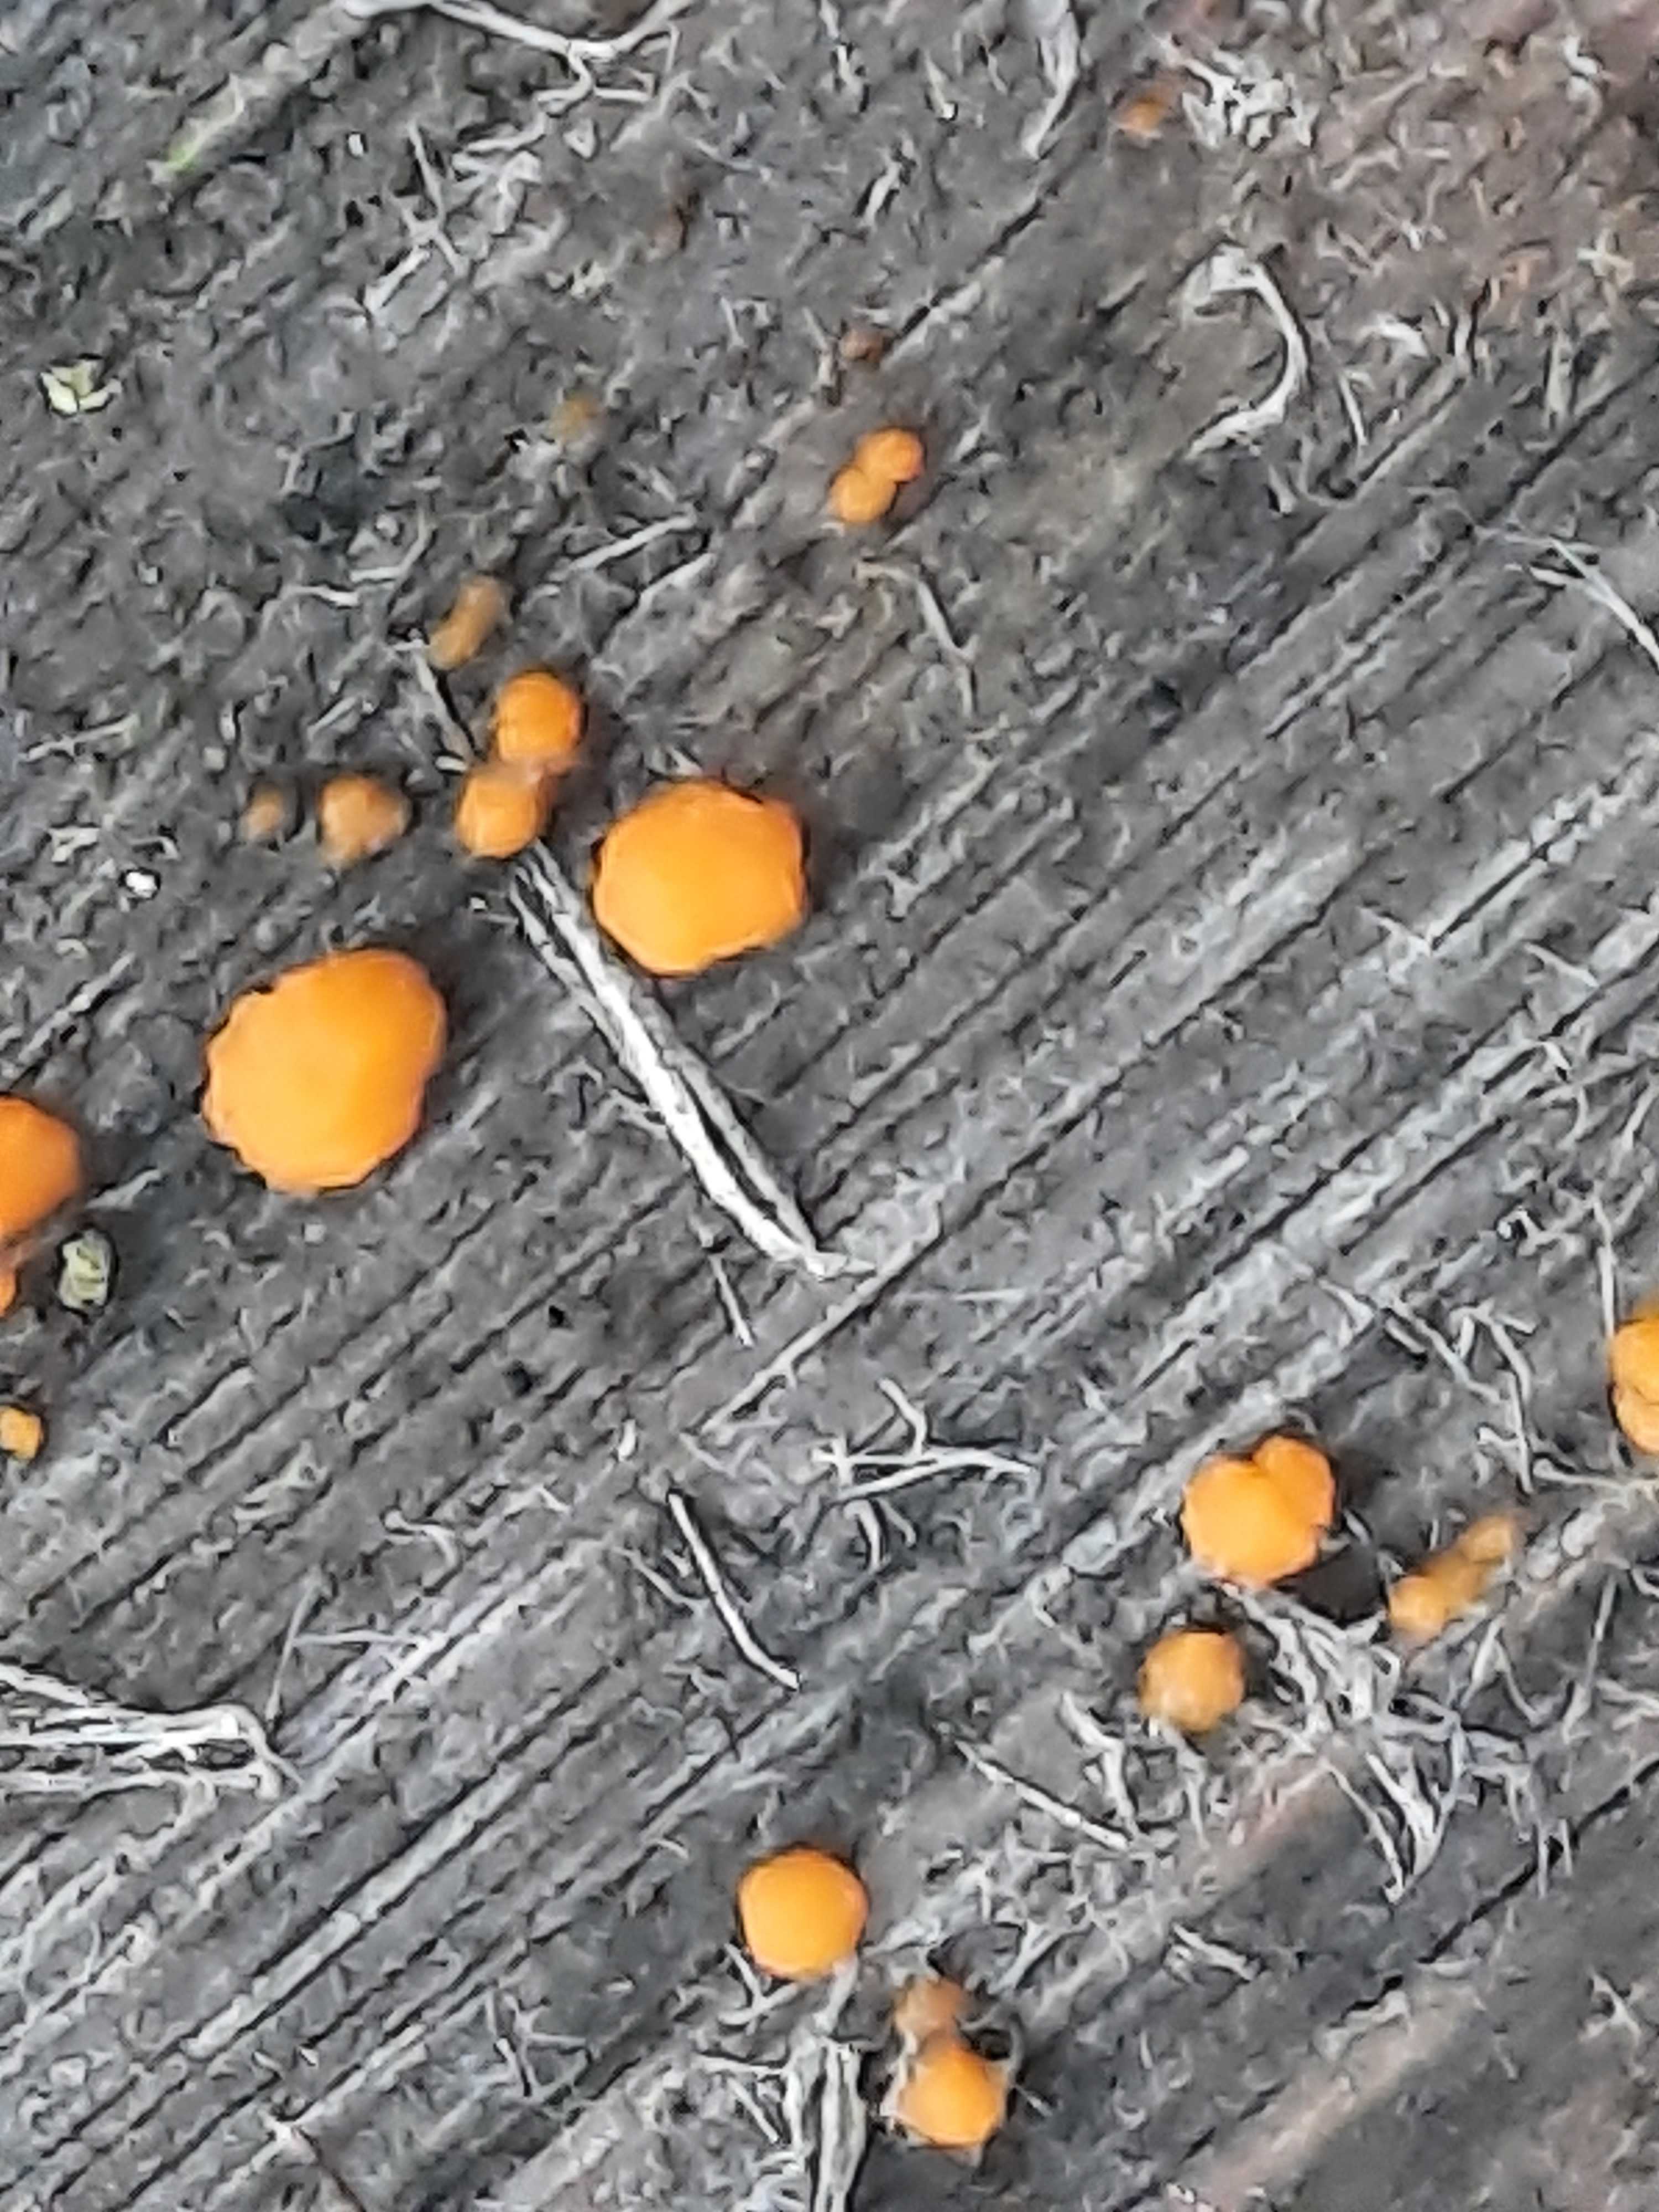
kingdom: Fungi
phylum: Basidiomycota
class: Dacrymycetes
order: Dacrymycetales
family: Dacrymycetaceae
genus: Dacrymyces
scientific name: Dacrymyces stillatus
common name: almindelig tåresvamp
